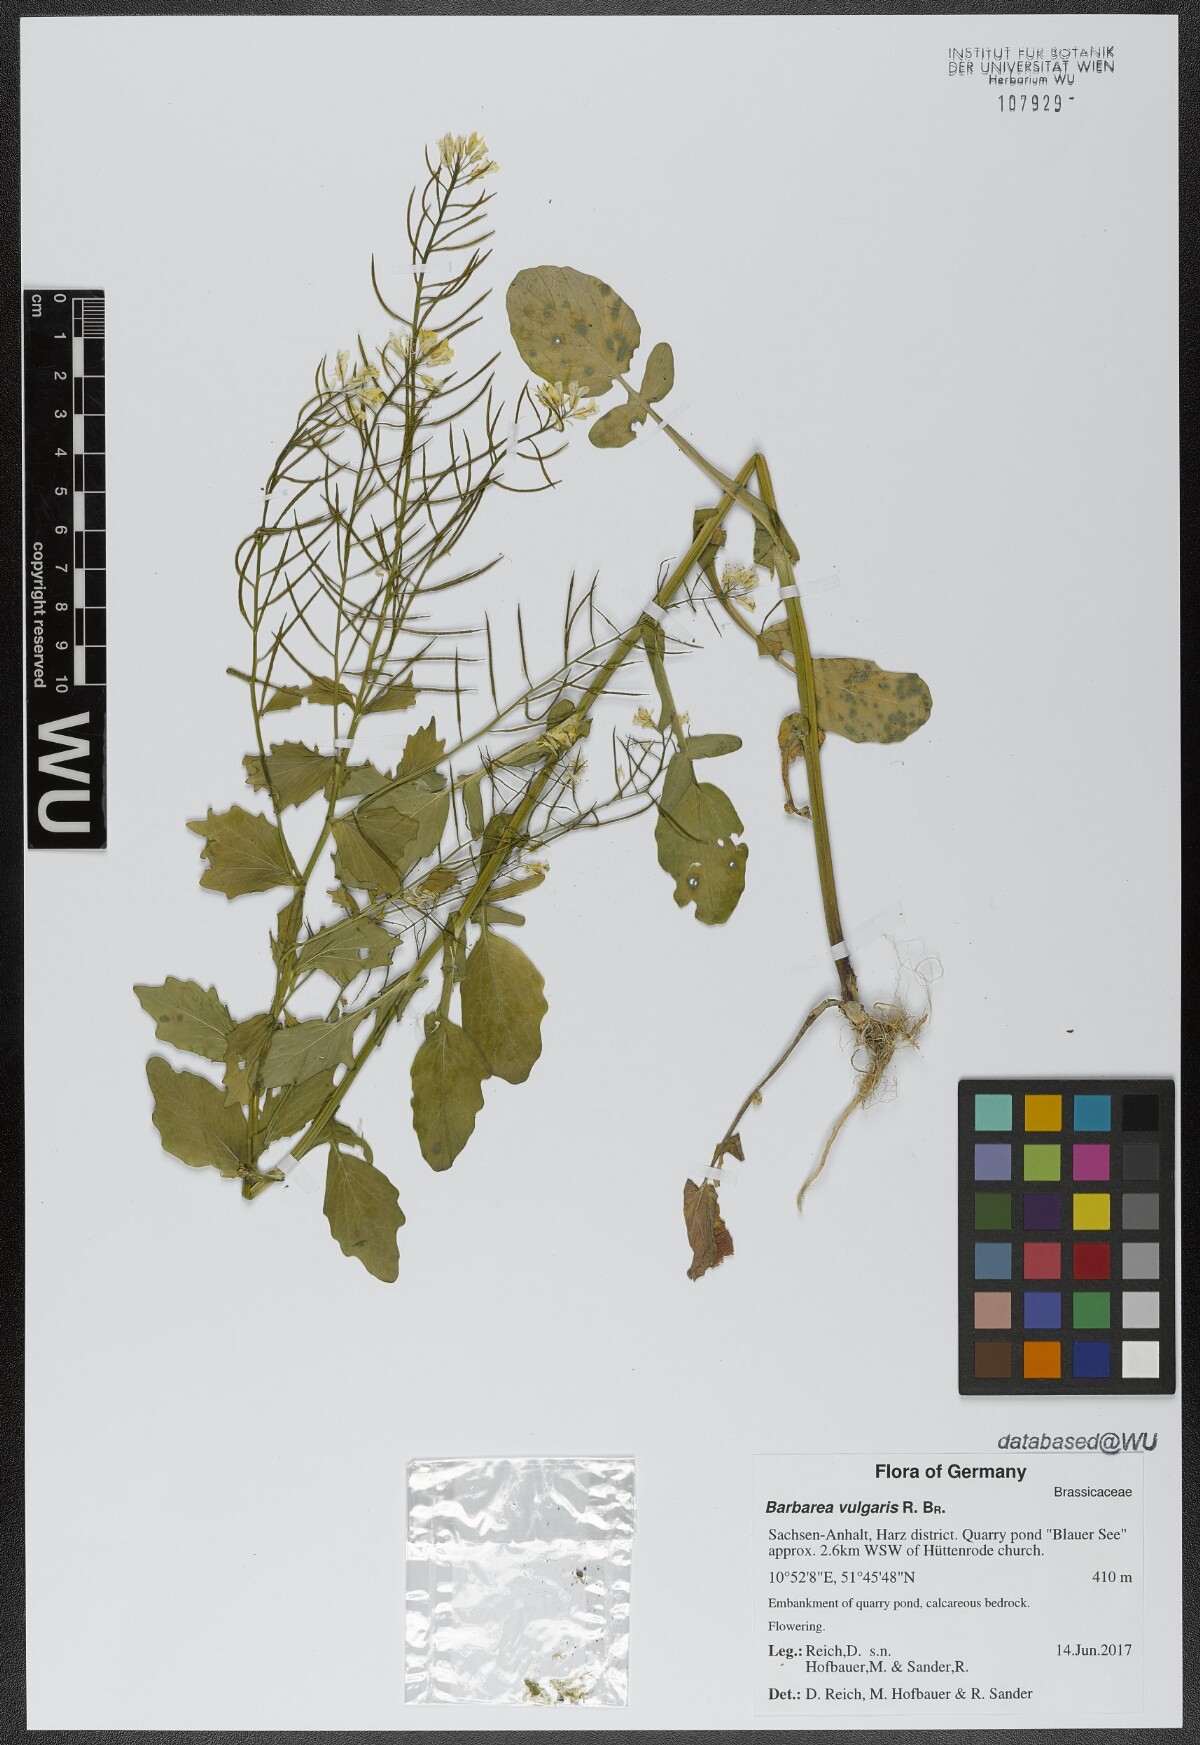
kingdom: Plantae
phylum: Tracheophyta
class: Magnoliopsida
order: Brassicales
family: Brassicaceae
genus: Barbarea
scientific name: Barbarea vulgaris
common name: Cressy-greens
